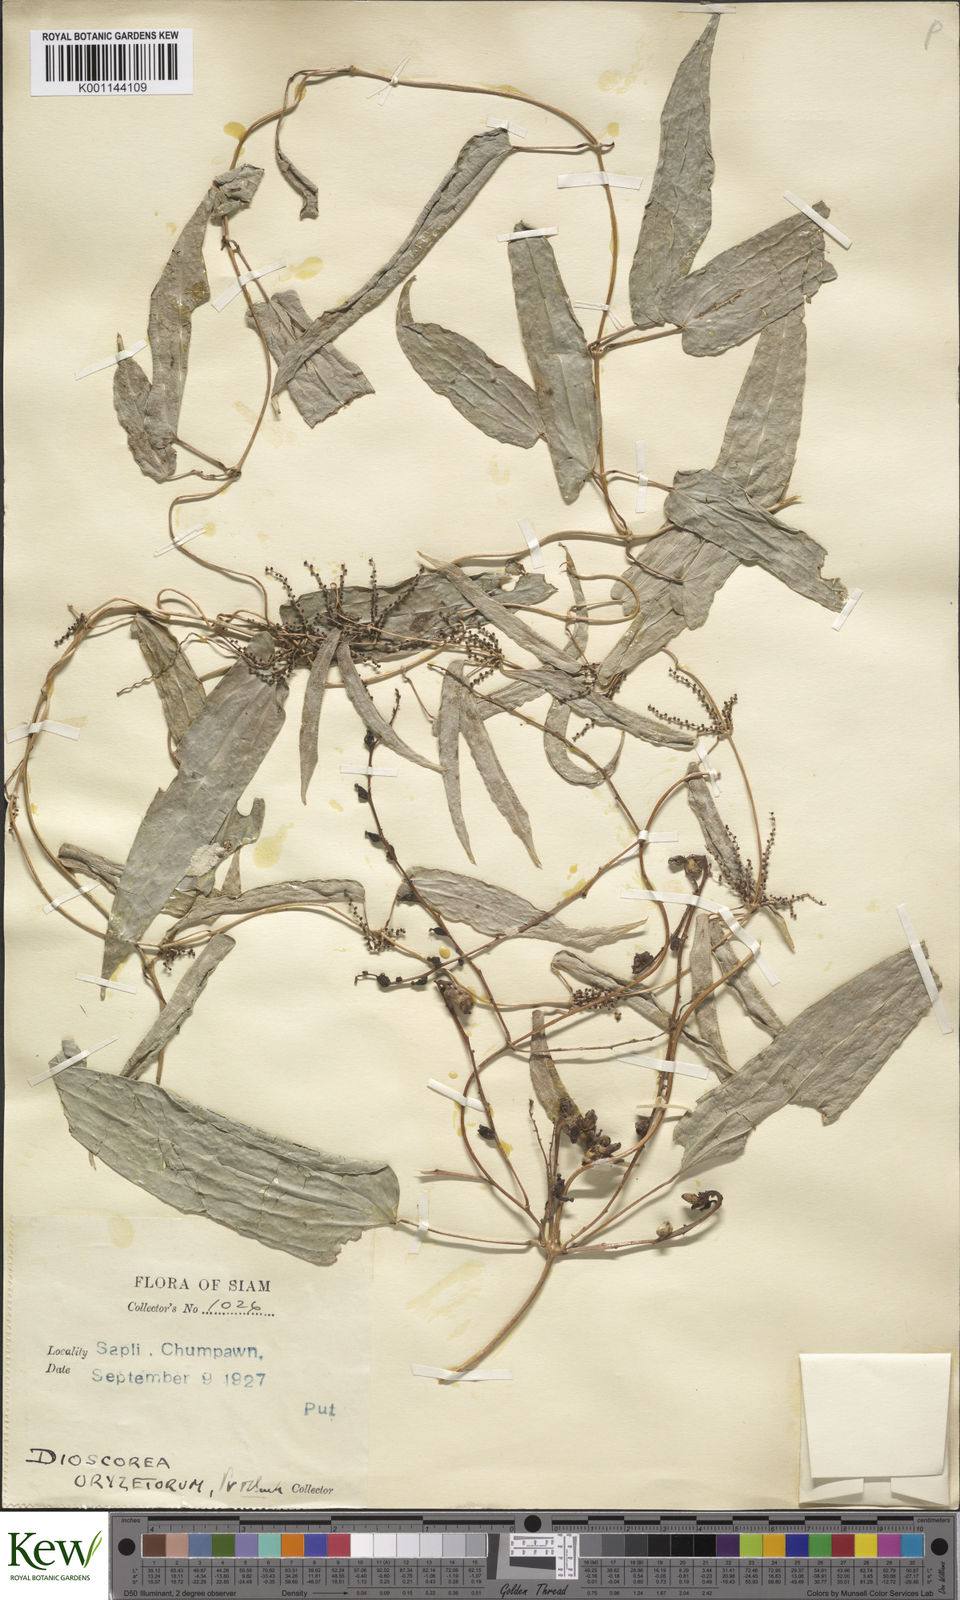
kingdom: Plantae
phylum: Tracheophyta
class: Liliopsida
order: Dioscoreales
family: Dioscoreaceae
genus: Dioscorea
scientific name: Dioscorea
